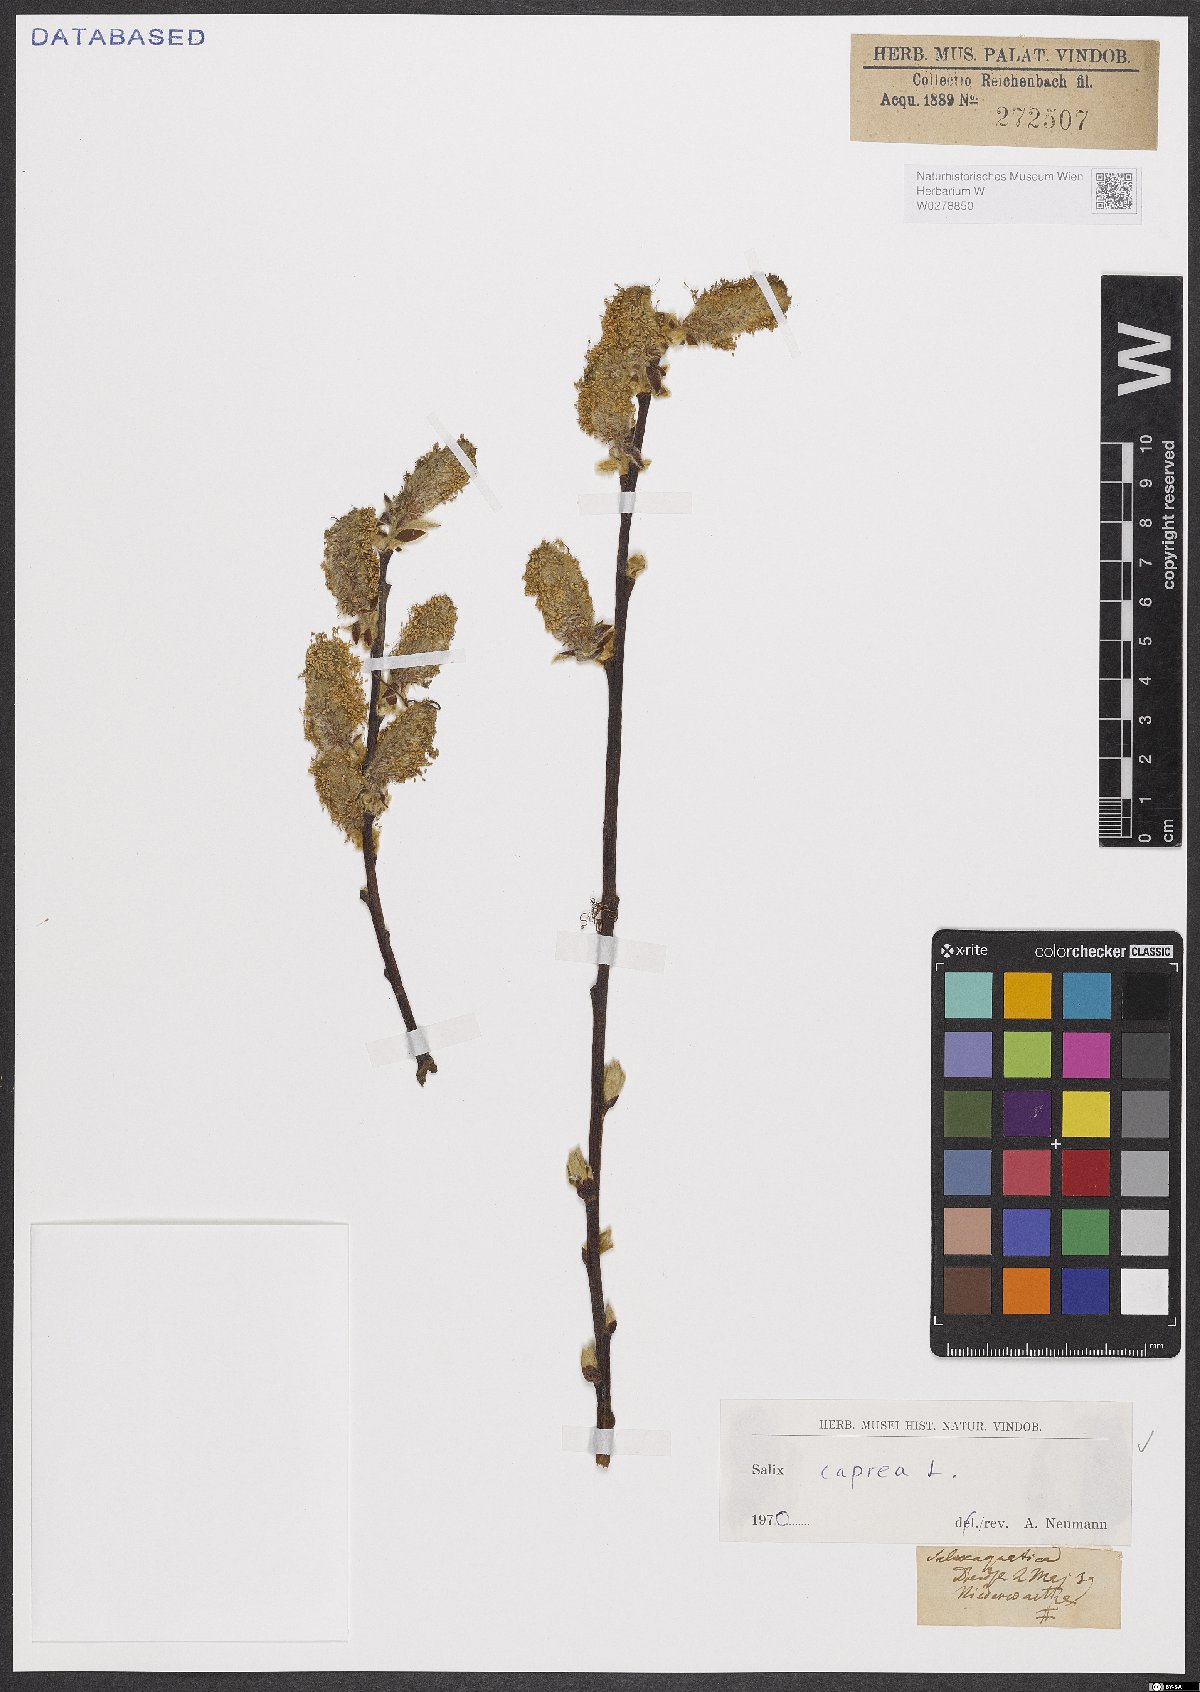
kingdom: Plantae
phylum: Tracheophyta
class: Magnoliopsida
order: Malpighiales
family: Salicaceae
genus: Salix
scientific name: Salix caprea
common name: Goat willow
